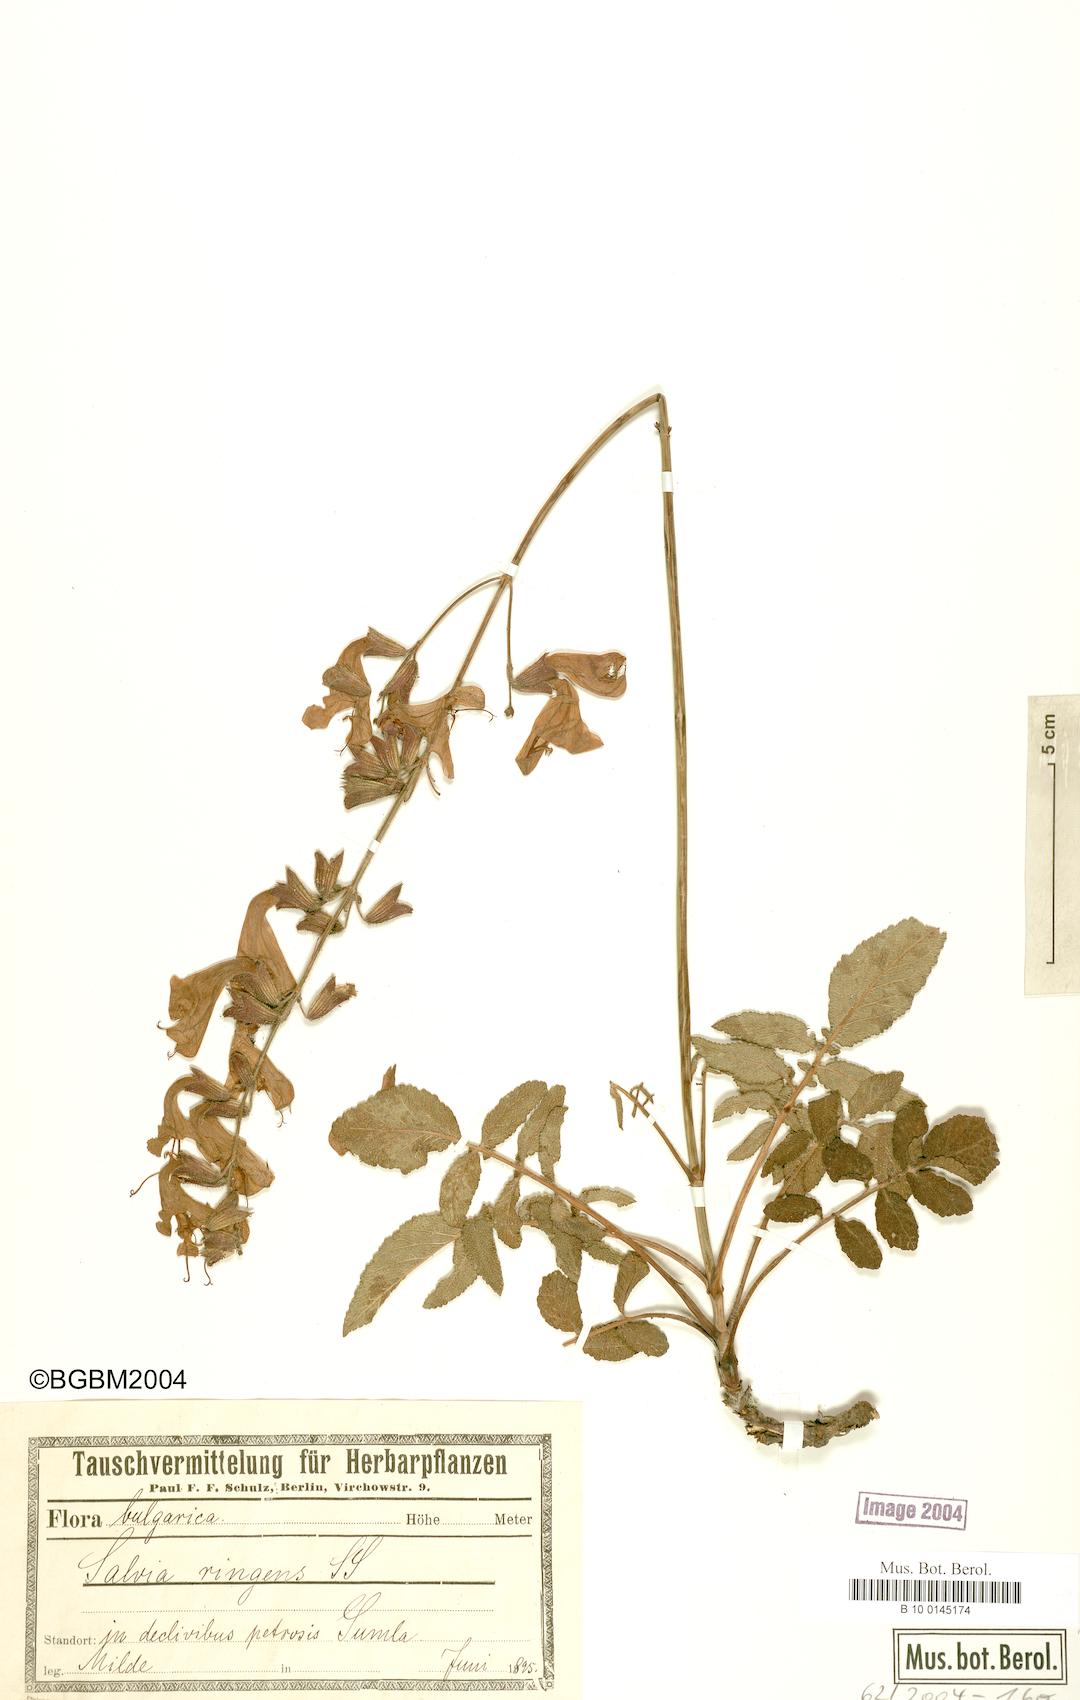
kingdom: Plantae
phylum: Tracheophyta
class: Magnoliopsida
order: Lamiales
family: Lamiaceae
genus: Salvia
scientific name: Salvia ringens
